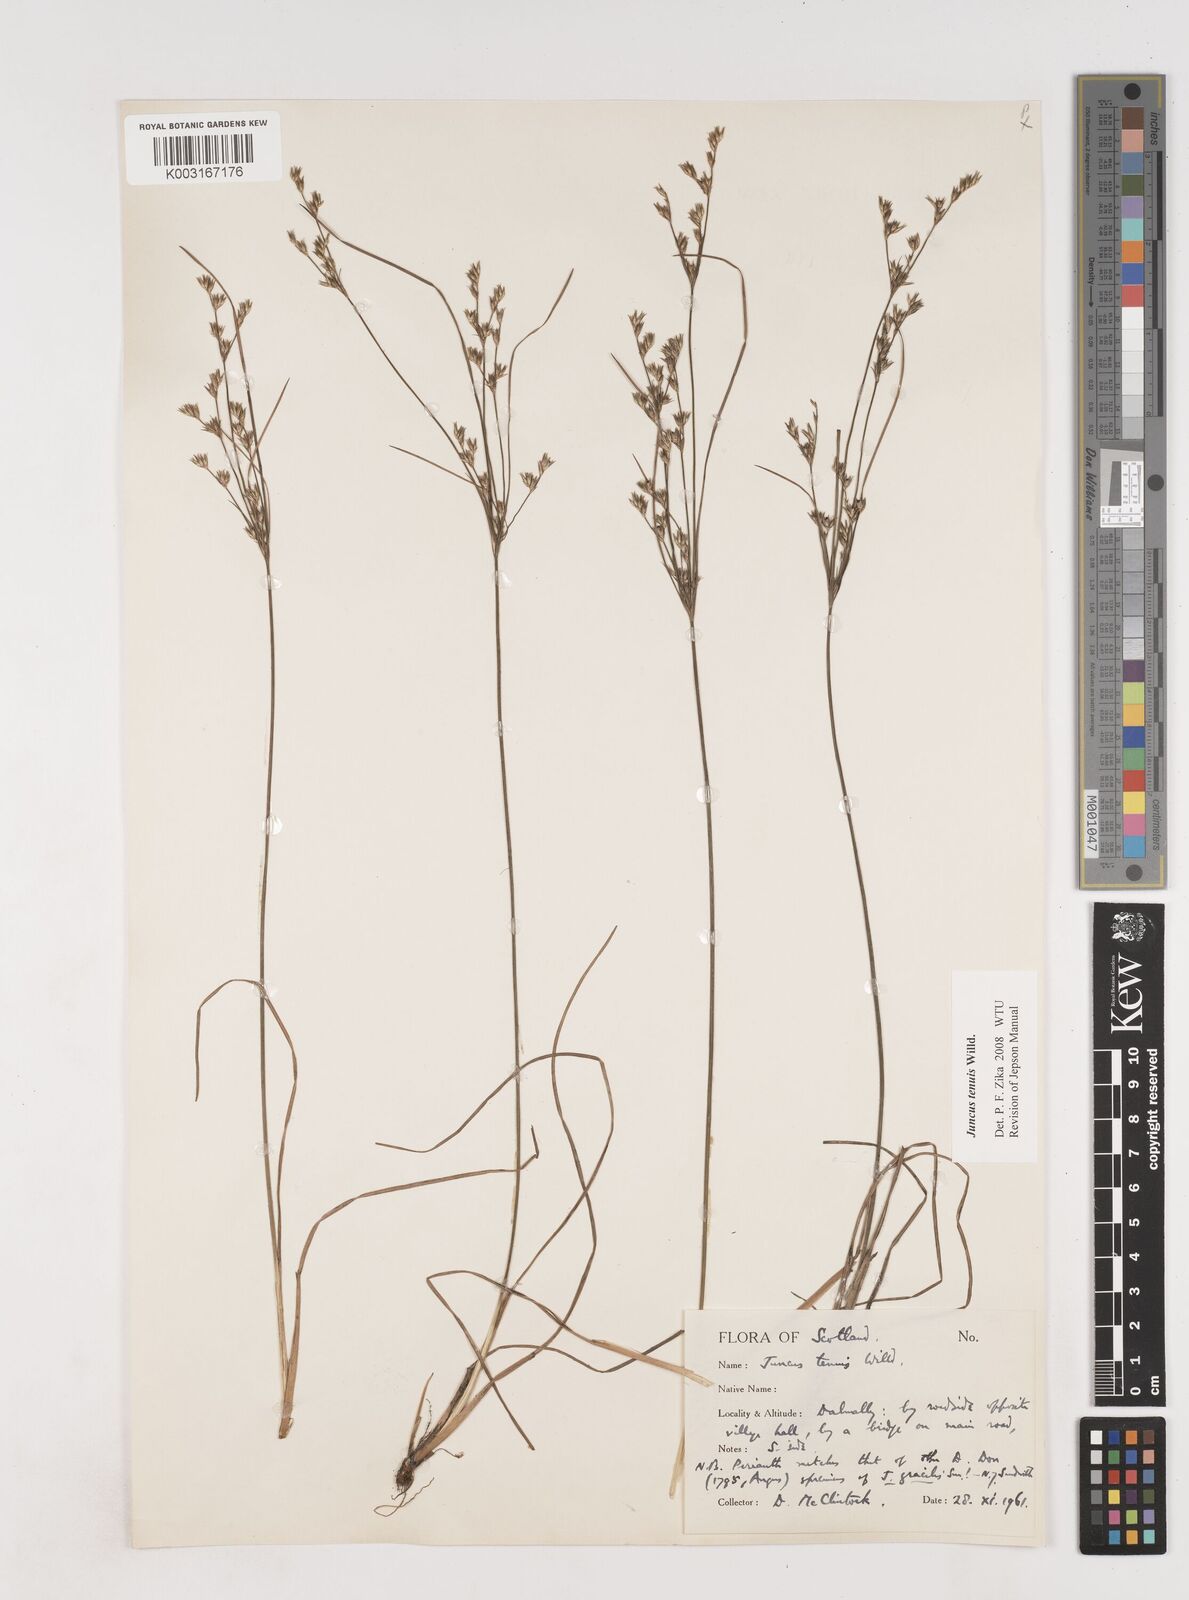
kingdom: Plantae
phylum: Tracheophyta
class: Liliopsida
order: Poales
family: Juncaceae
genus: Juncus
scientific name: Juncus tenuis
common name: Slender rush
